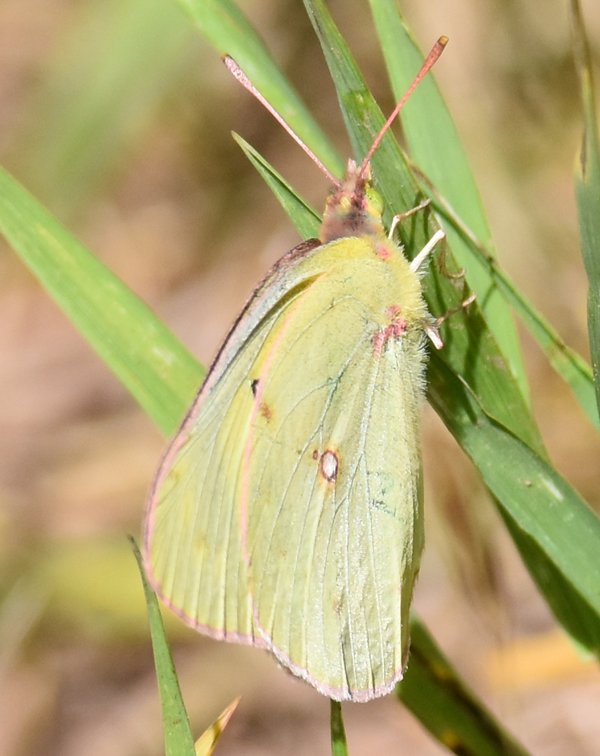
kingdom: Animalia
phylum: Arthropoda
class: Insecta
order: Lepidoptera
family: Pieridae
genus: Colias
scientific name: Colias philodice
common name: Clouded Sulphur
